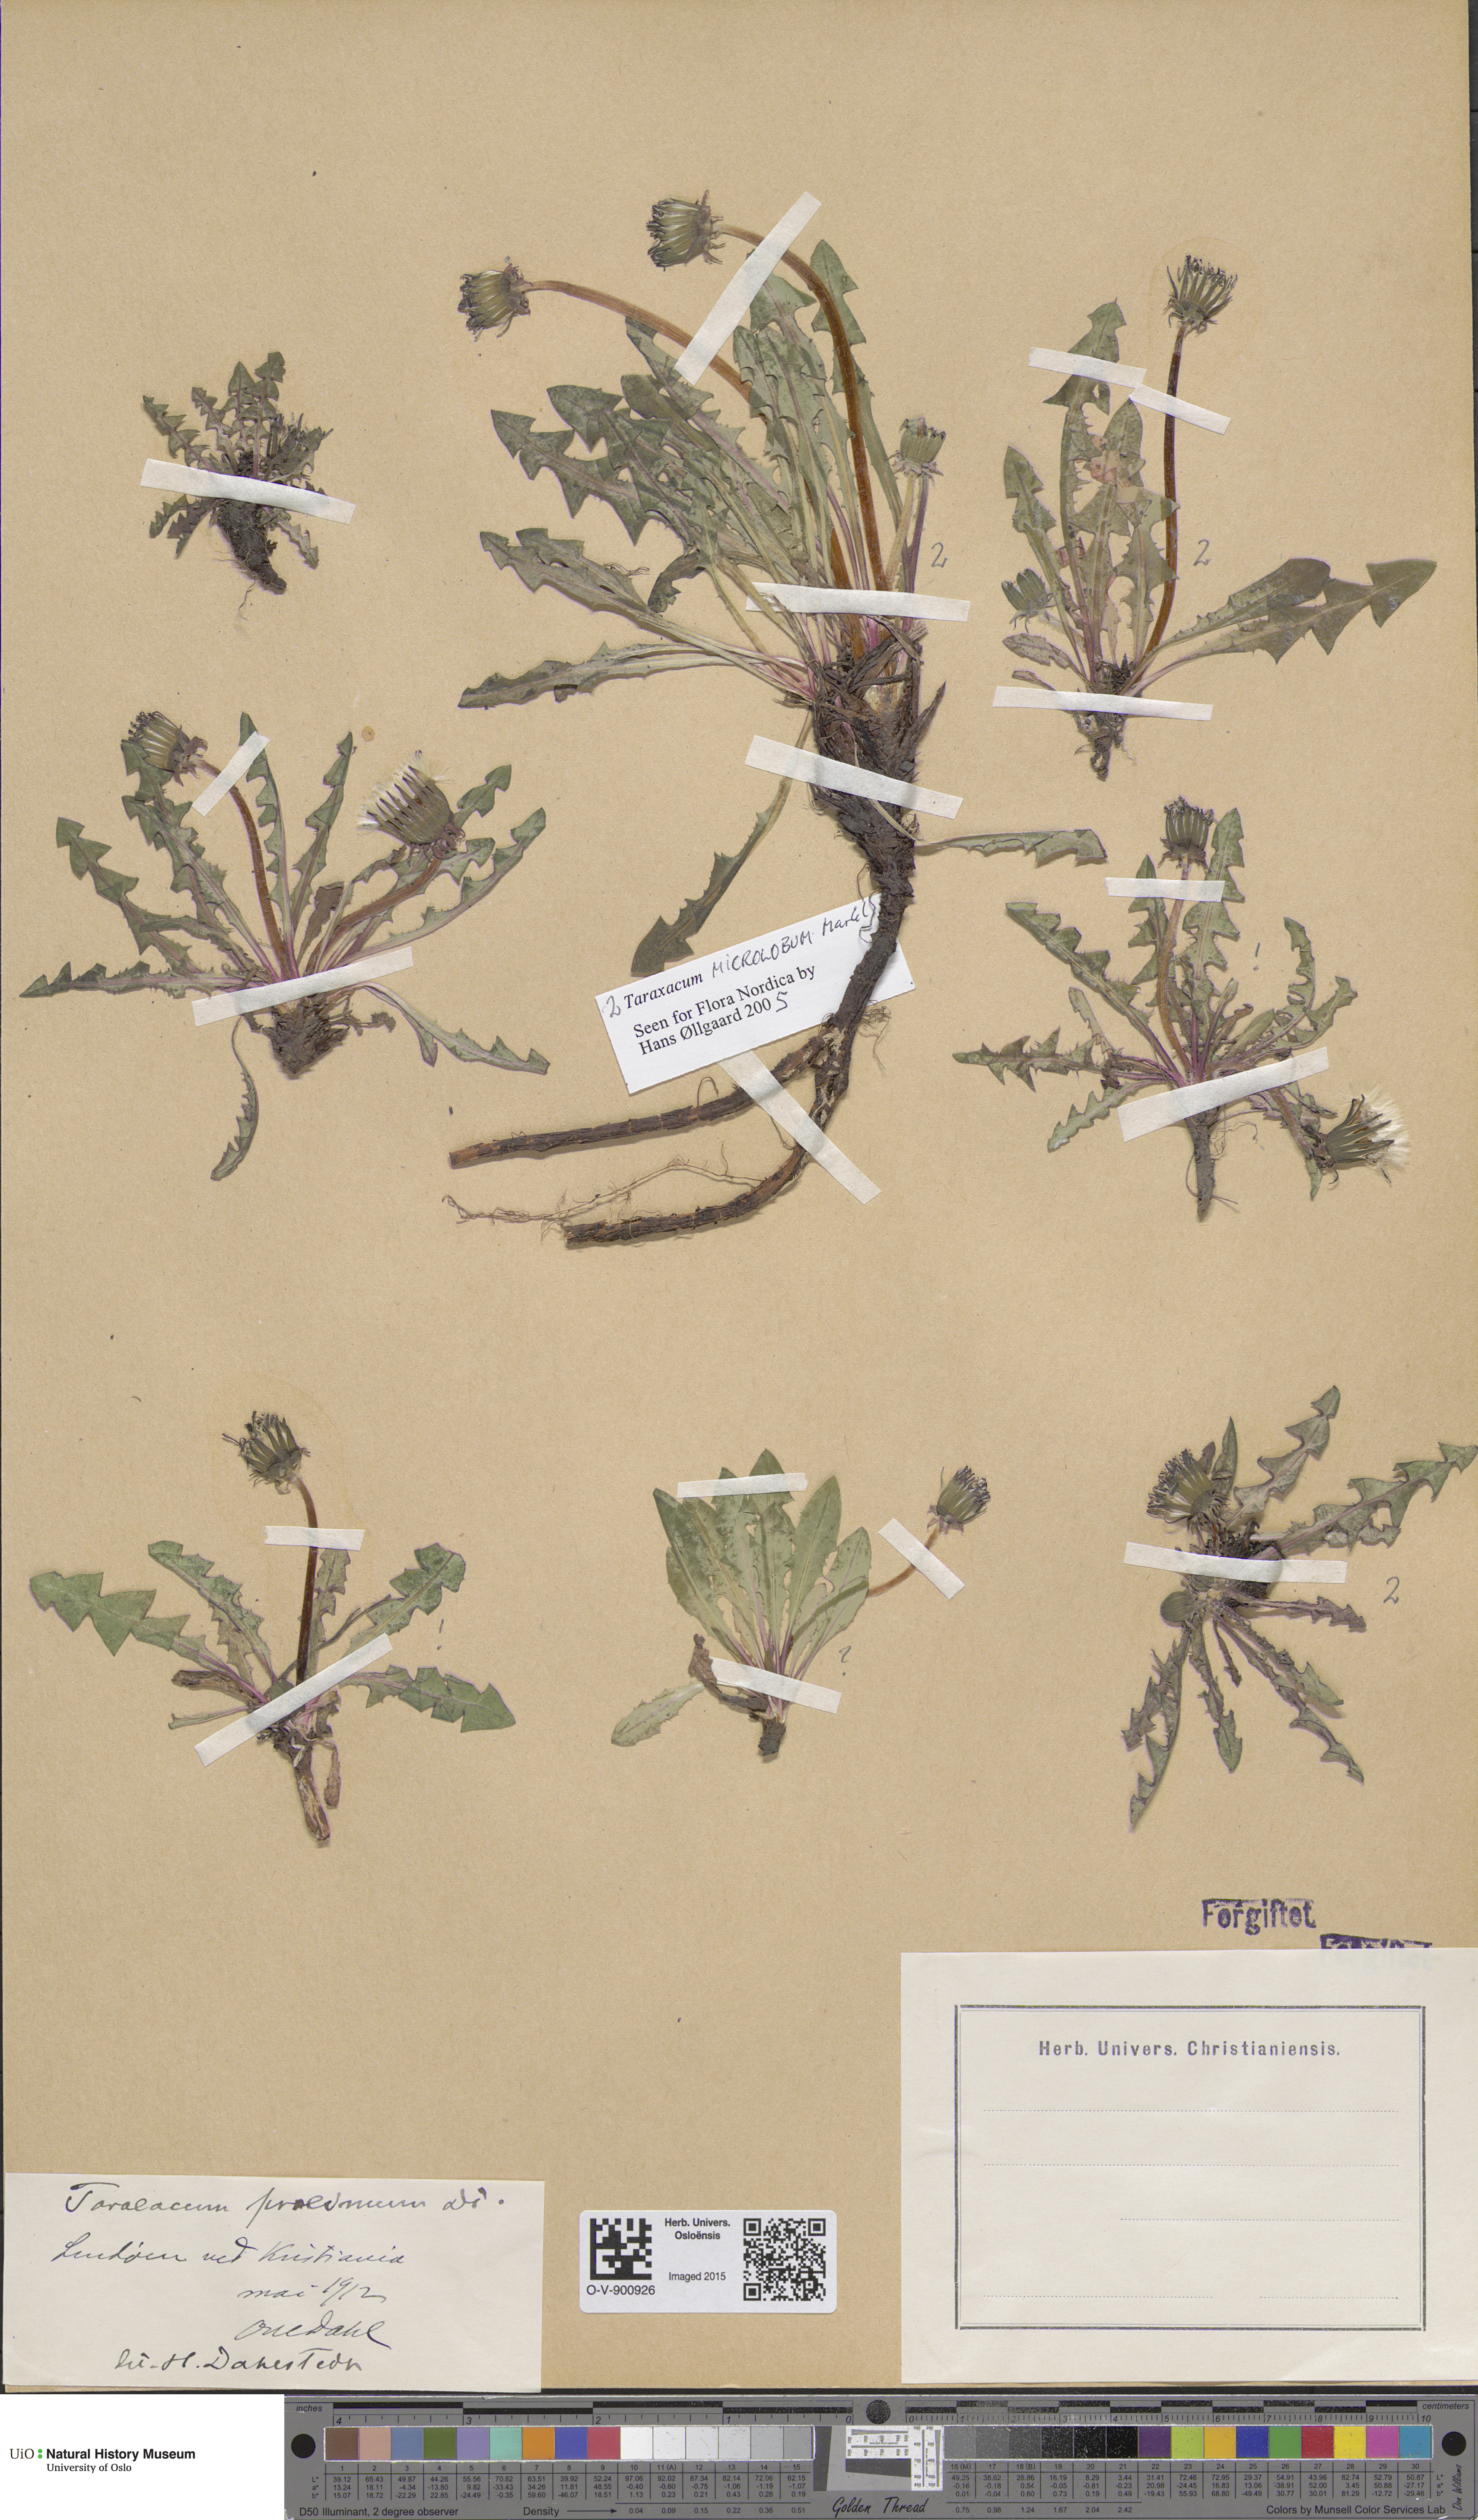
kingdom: Plantae
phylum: Tracheophyta
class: Magnoliopsida
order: Asterales
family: Asteraceae
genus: Taraxacum
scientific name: Taraxacum proximum
